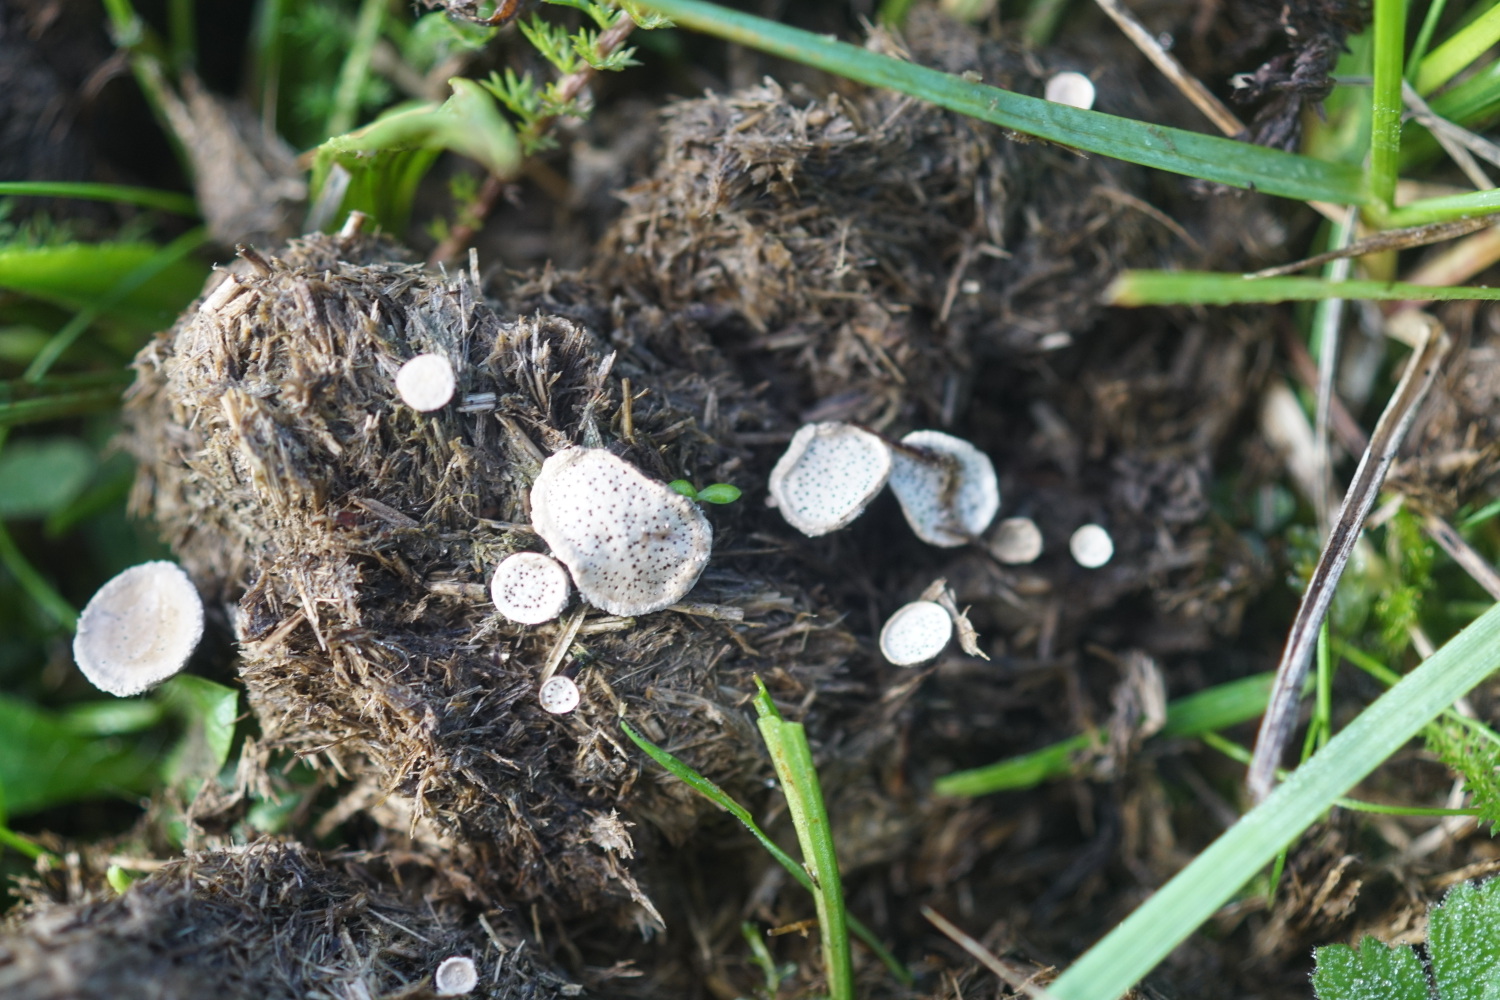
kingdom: Fungi
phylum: Ascomycota
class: Sordariomycetes
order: Xylariales
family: Xylariaceae
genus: Poronia
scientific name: Poronia punctata
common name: stor priksvamp
